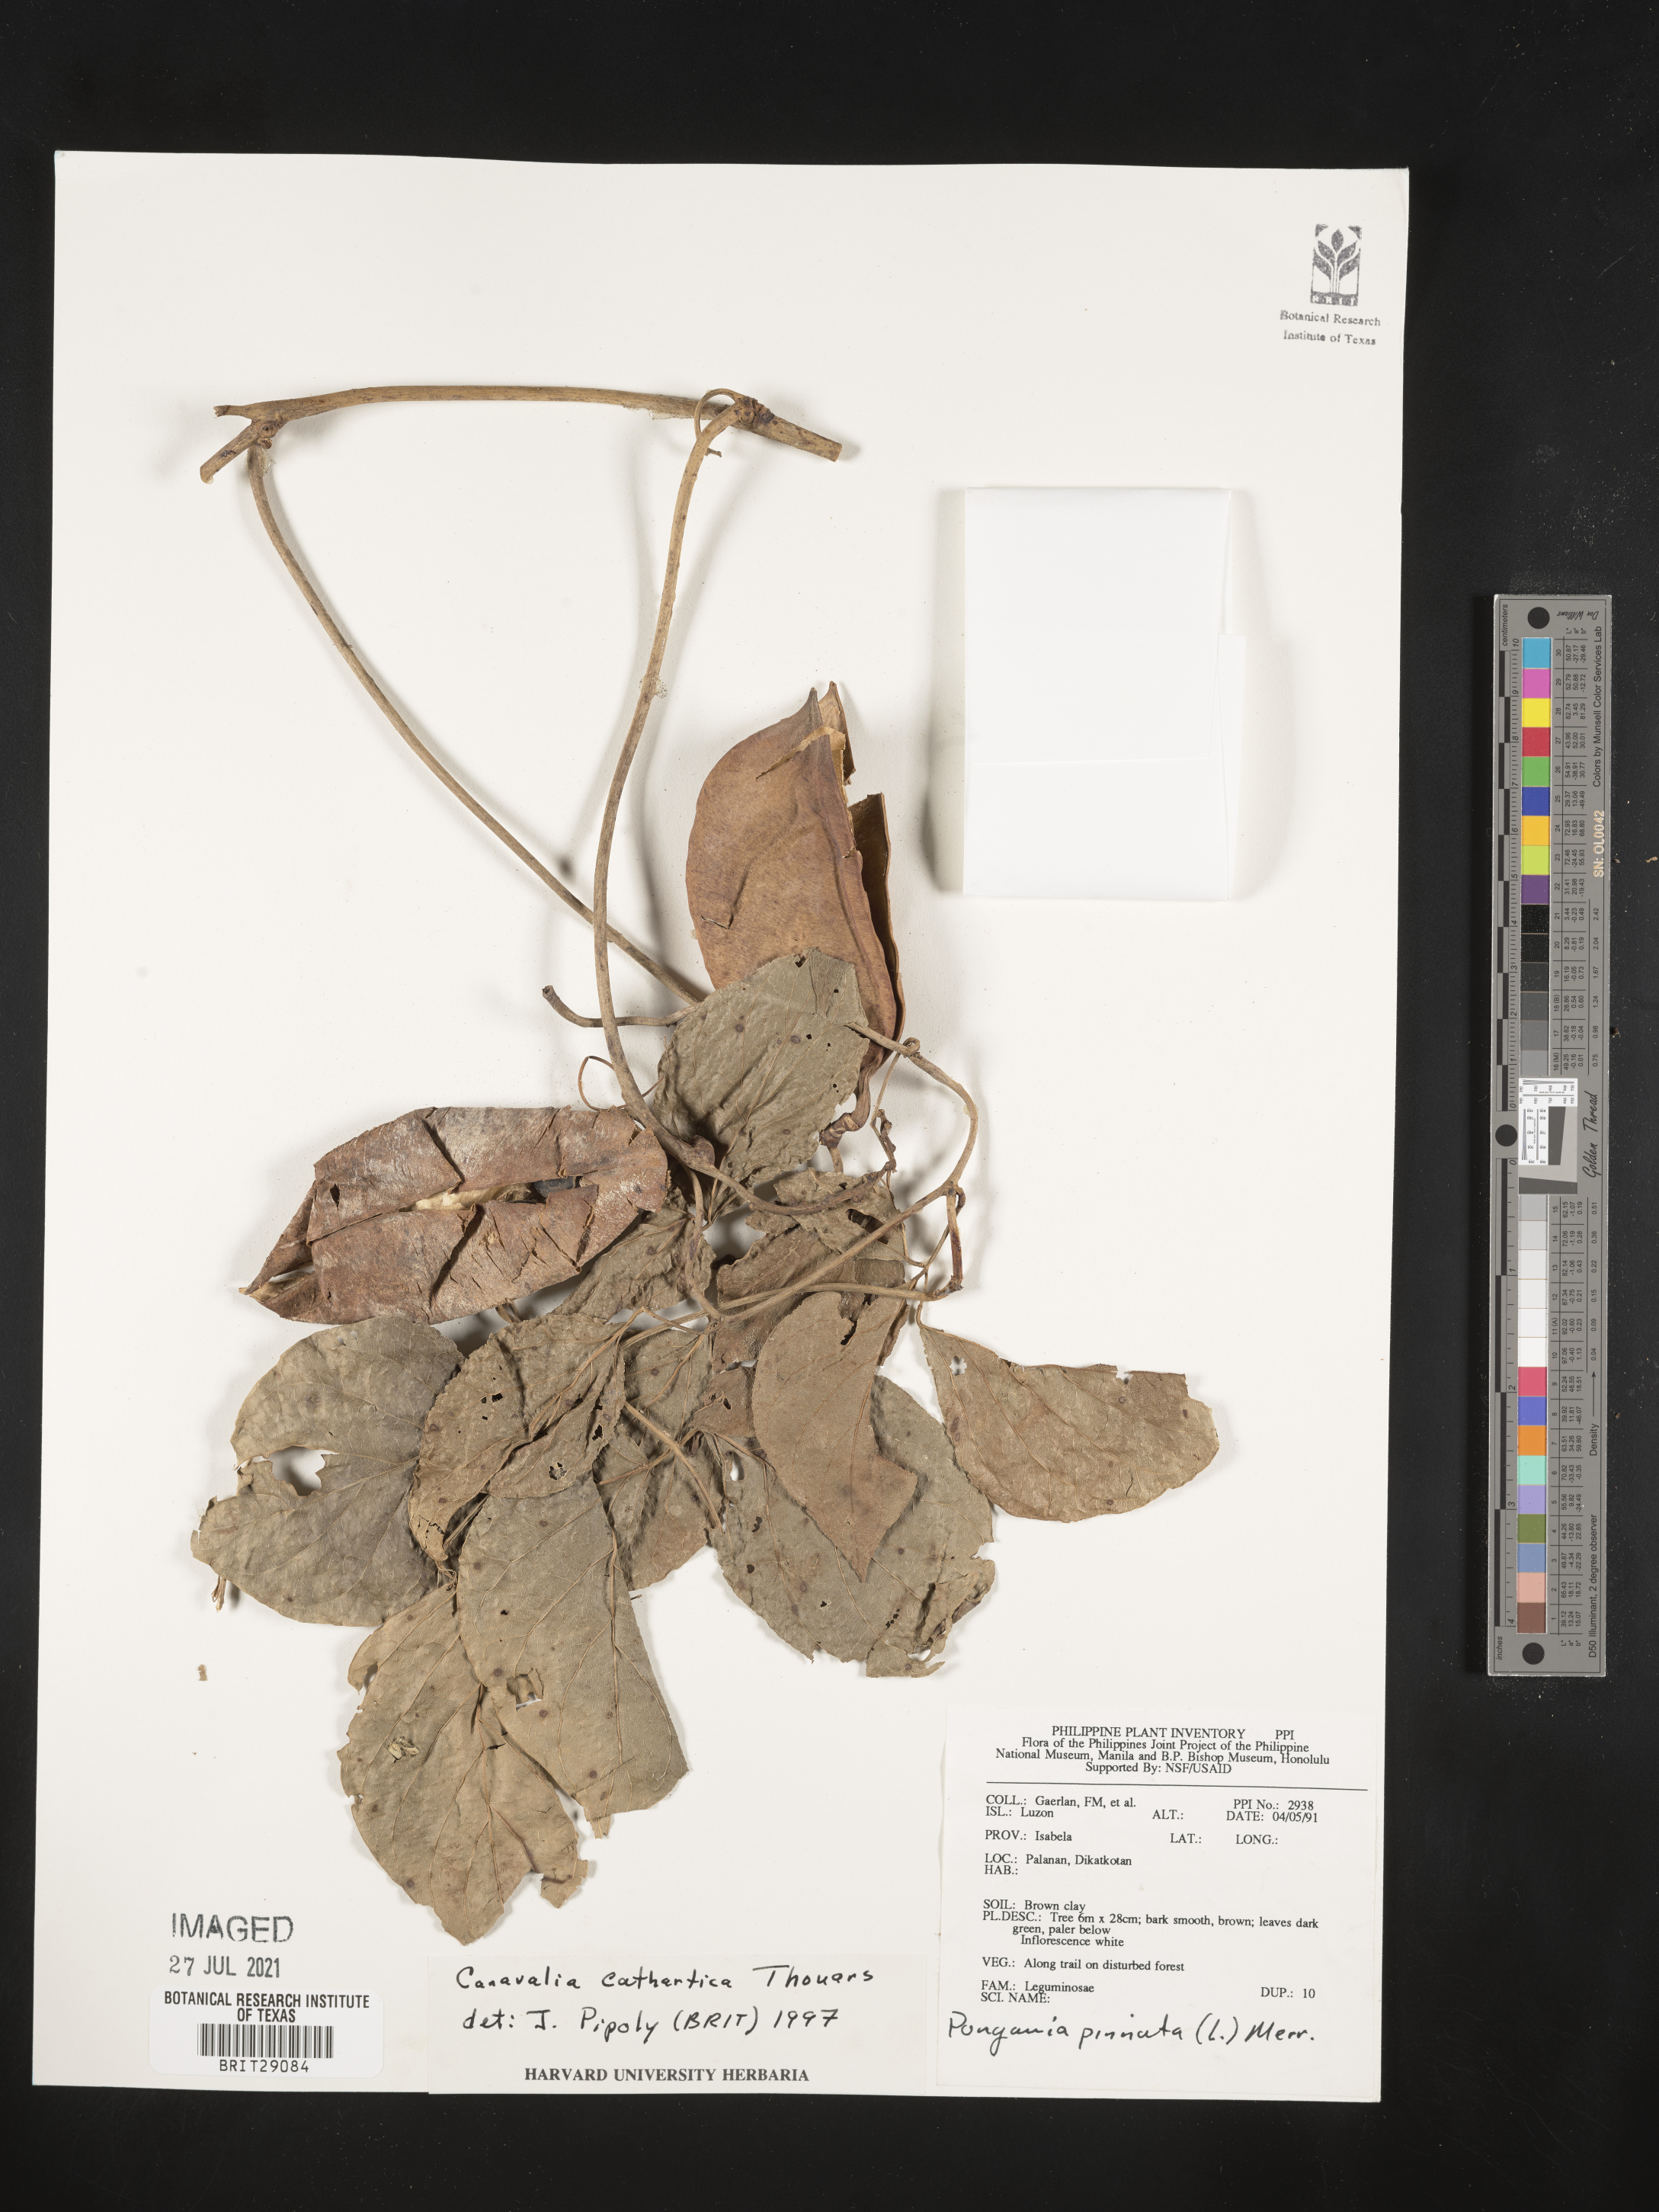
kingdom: Plantae
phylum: Tracheophyta
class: Magnoliopsida
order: Fabales
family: Fabaceae
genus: Canavalia
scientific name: Canavalia cathartica
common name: Maunaloa
